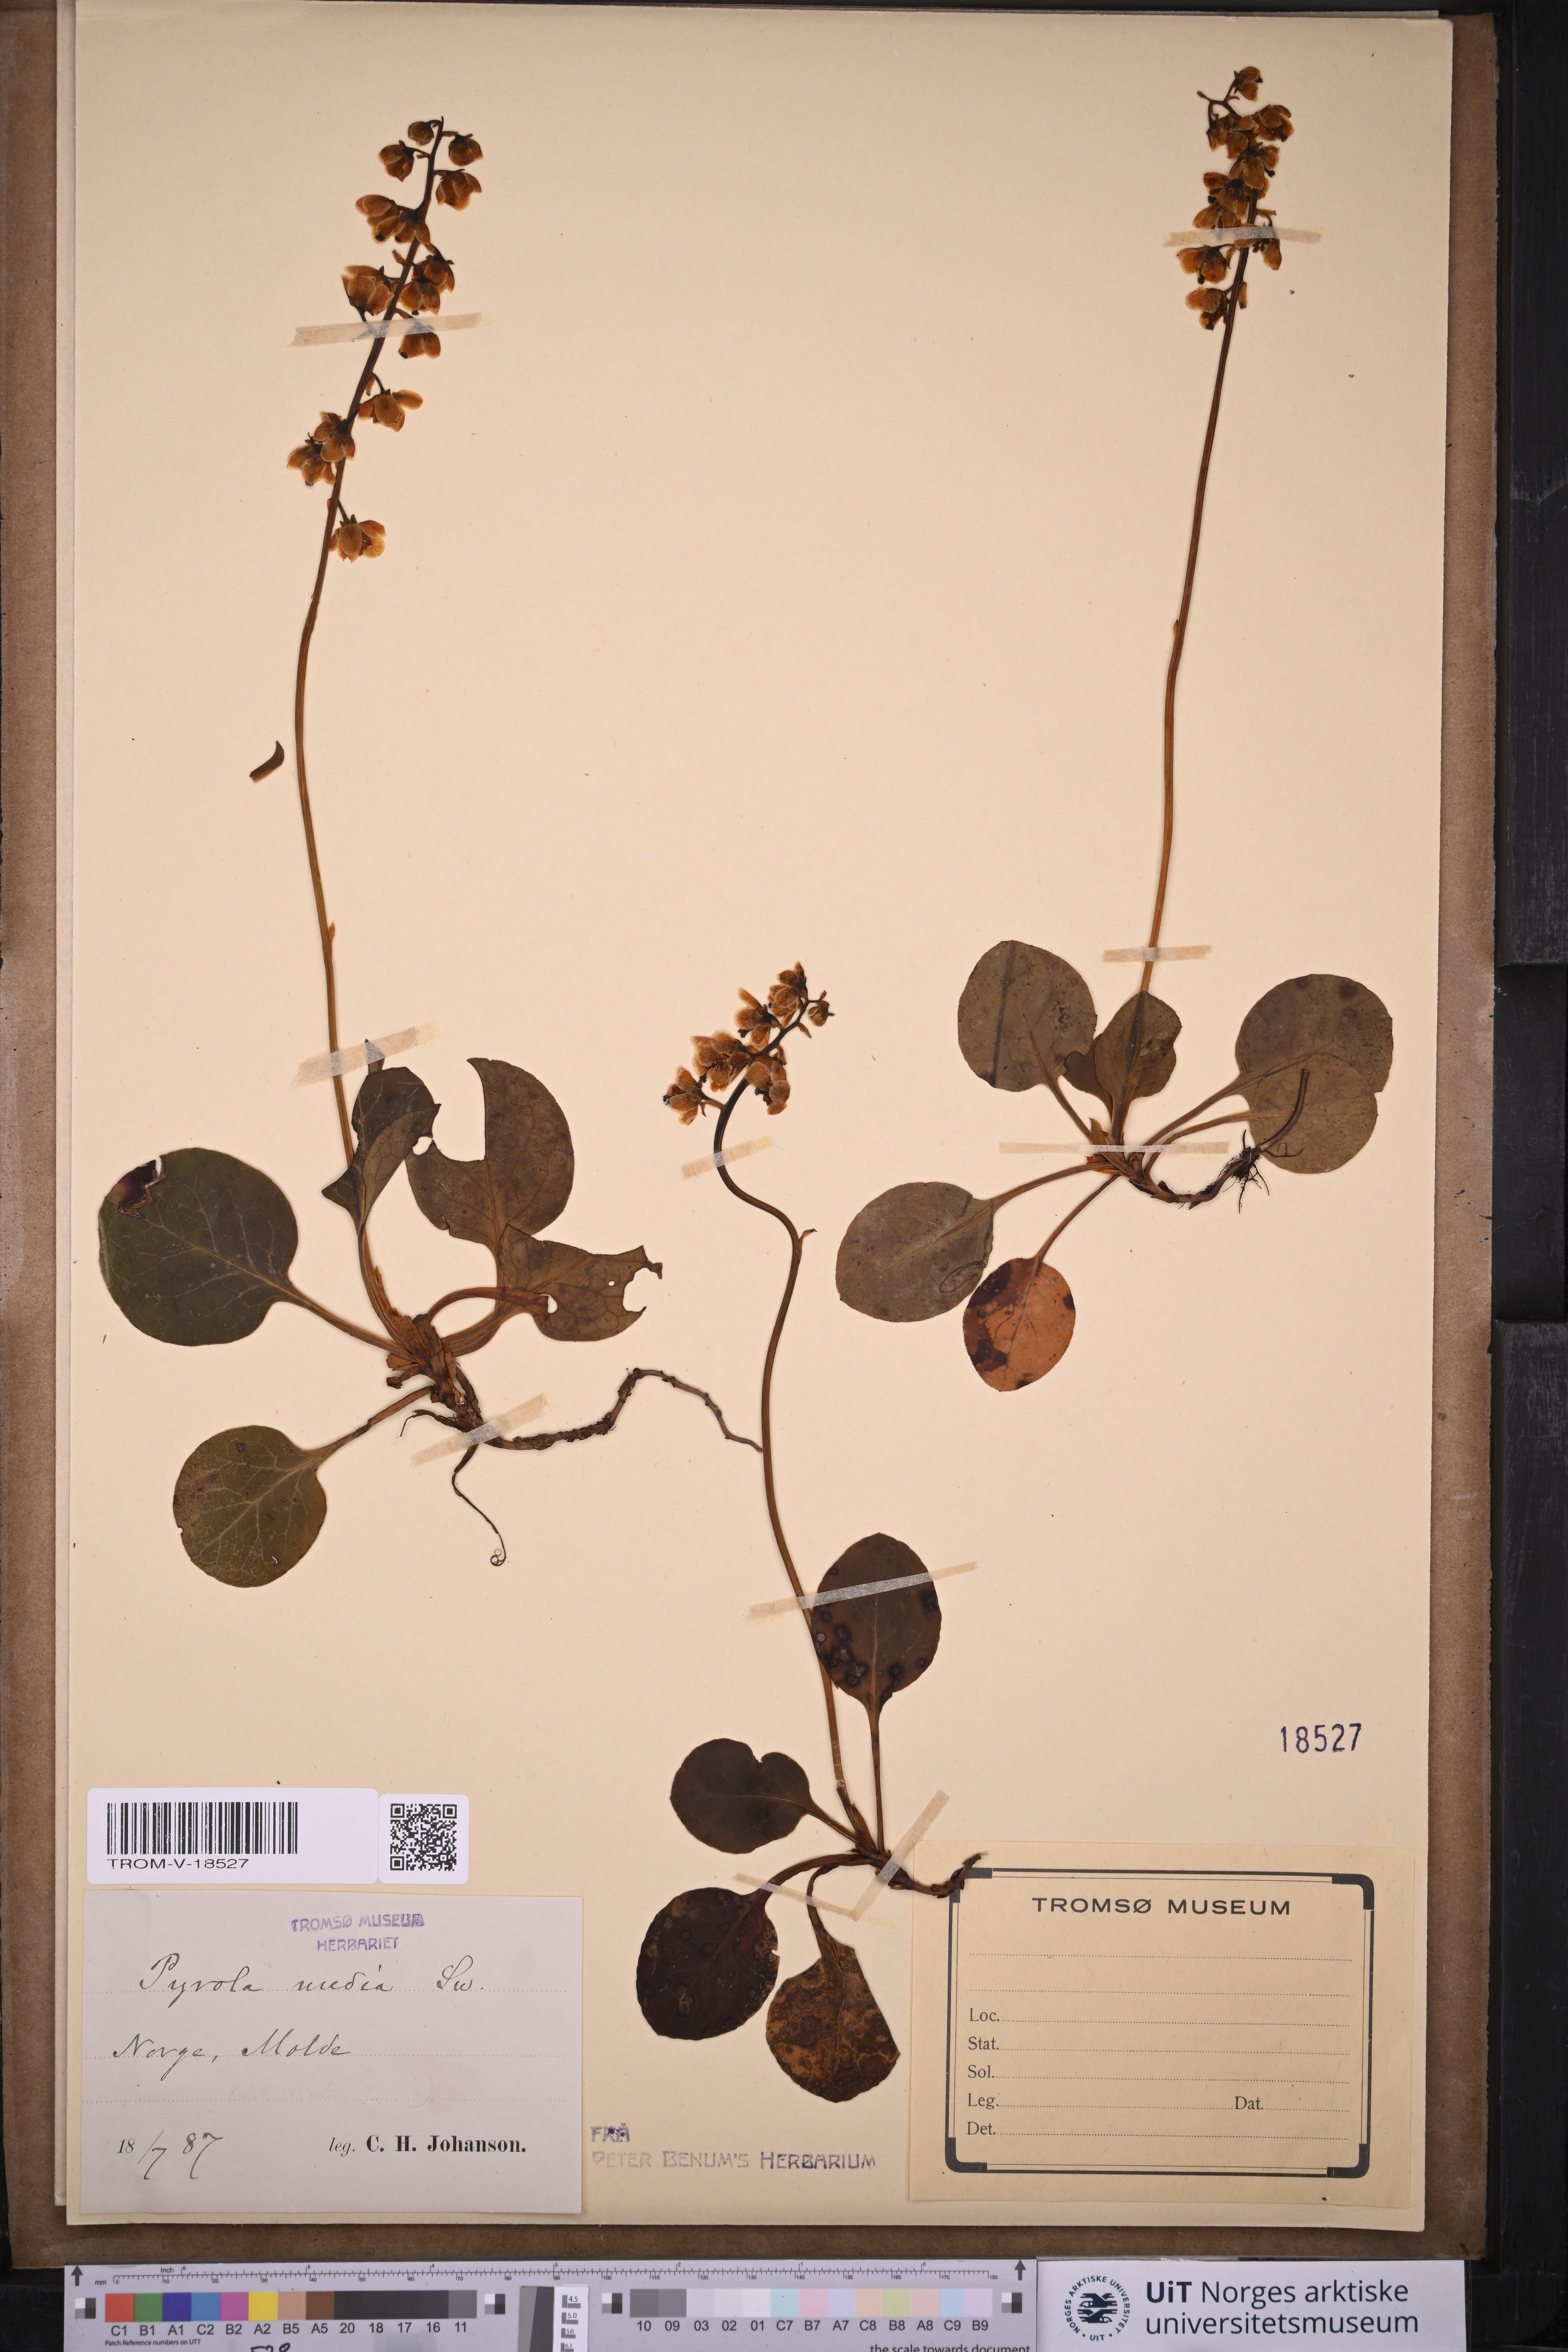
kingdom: Plantae
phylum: Tracheophyta
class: Magnoliopsida
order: Ericales
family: Ericaceae
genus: Pyrola
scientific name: Pyrola media
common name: Intermediate wintergreen
